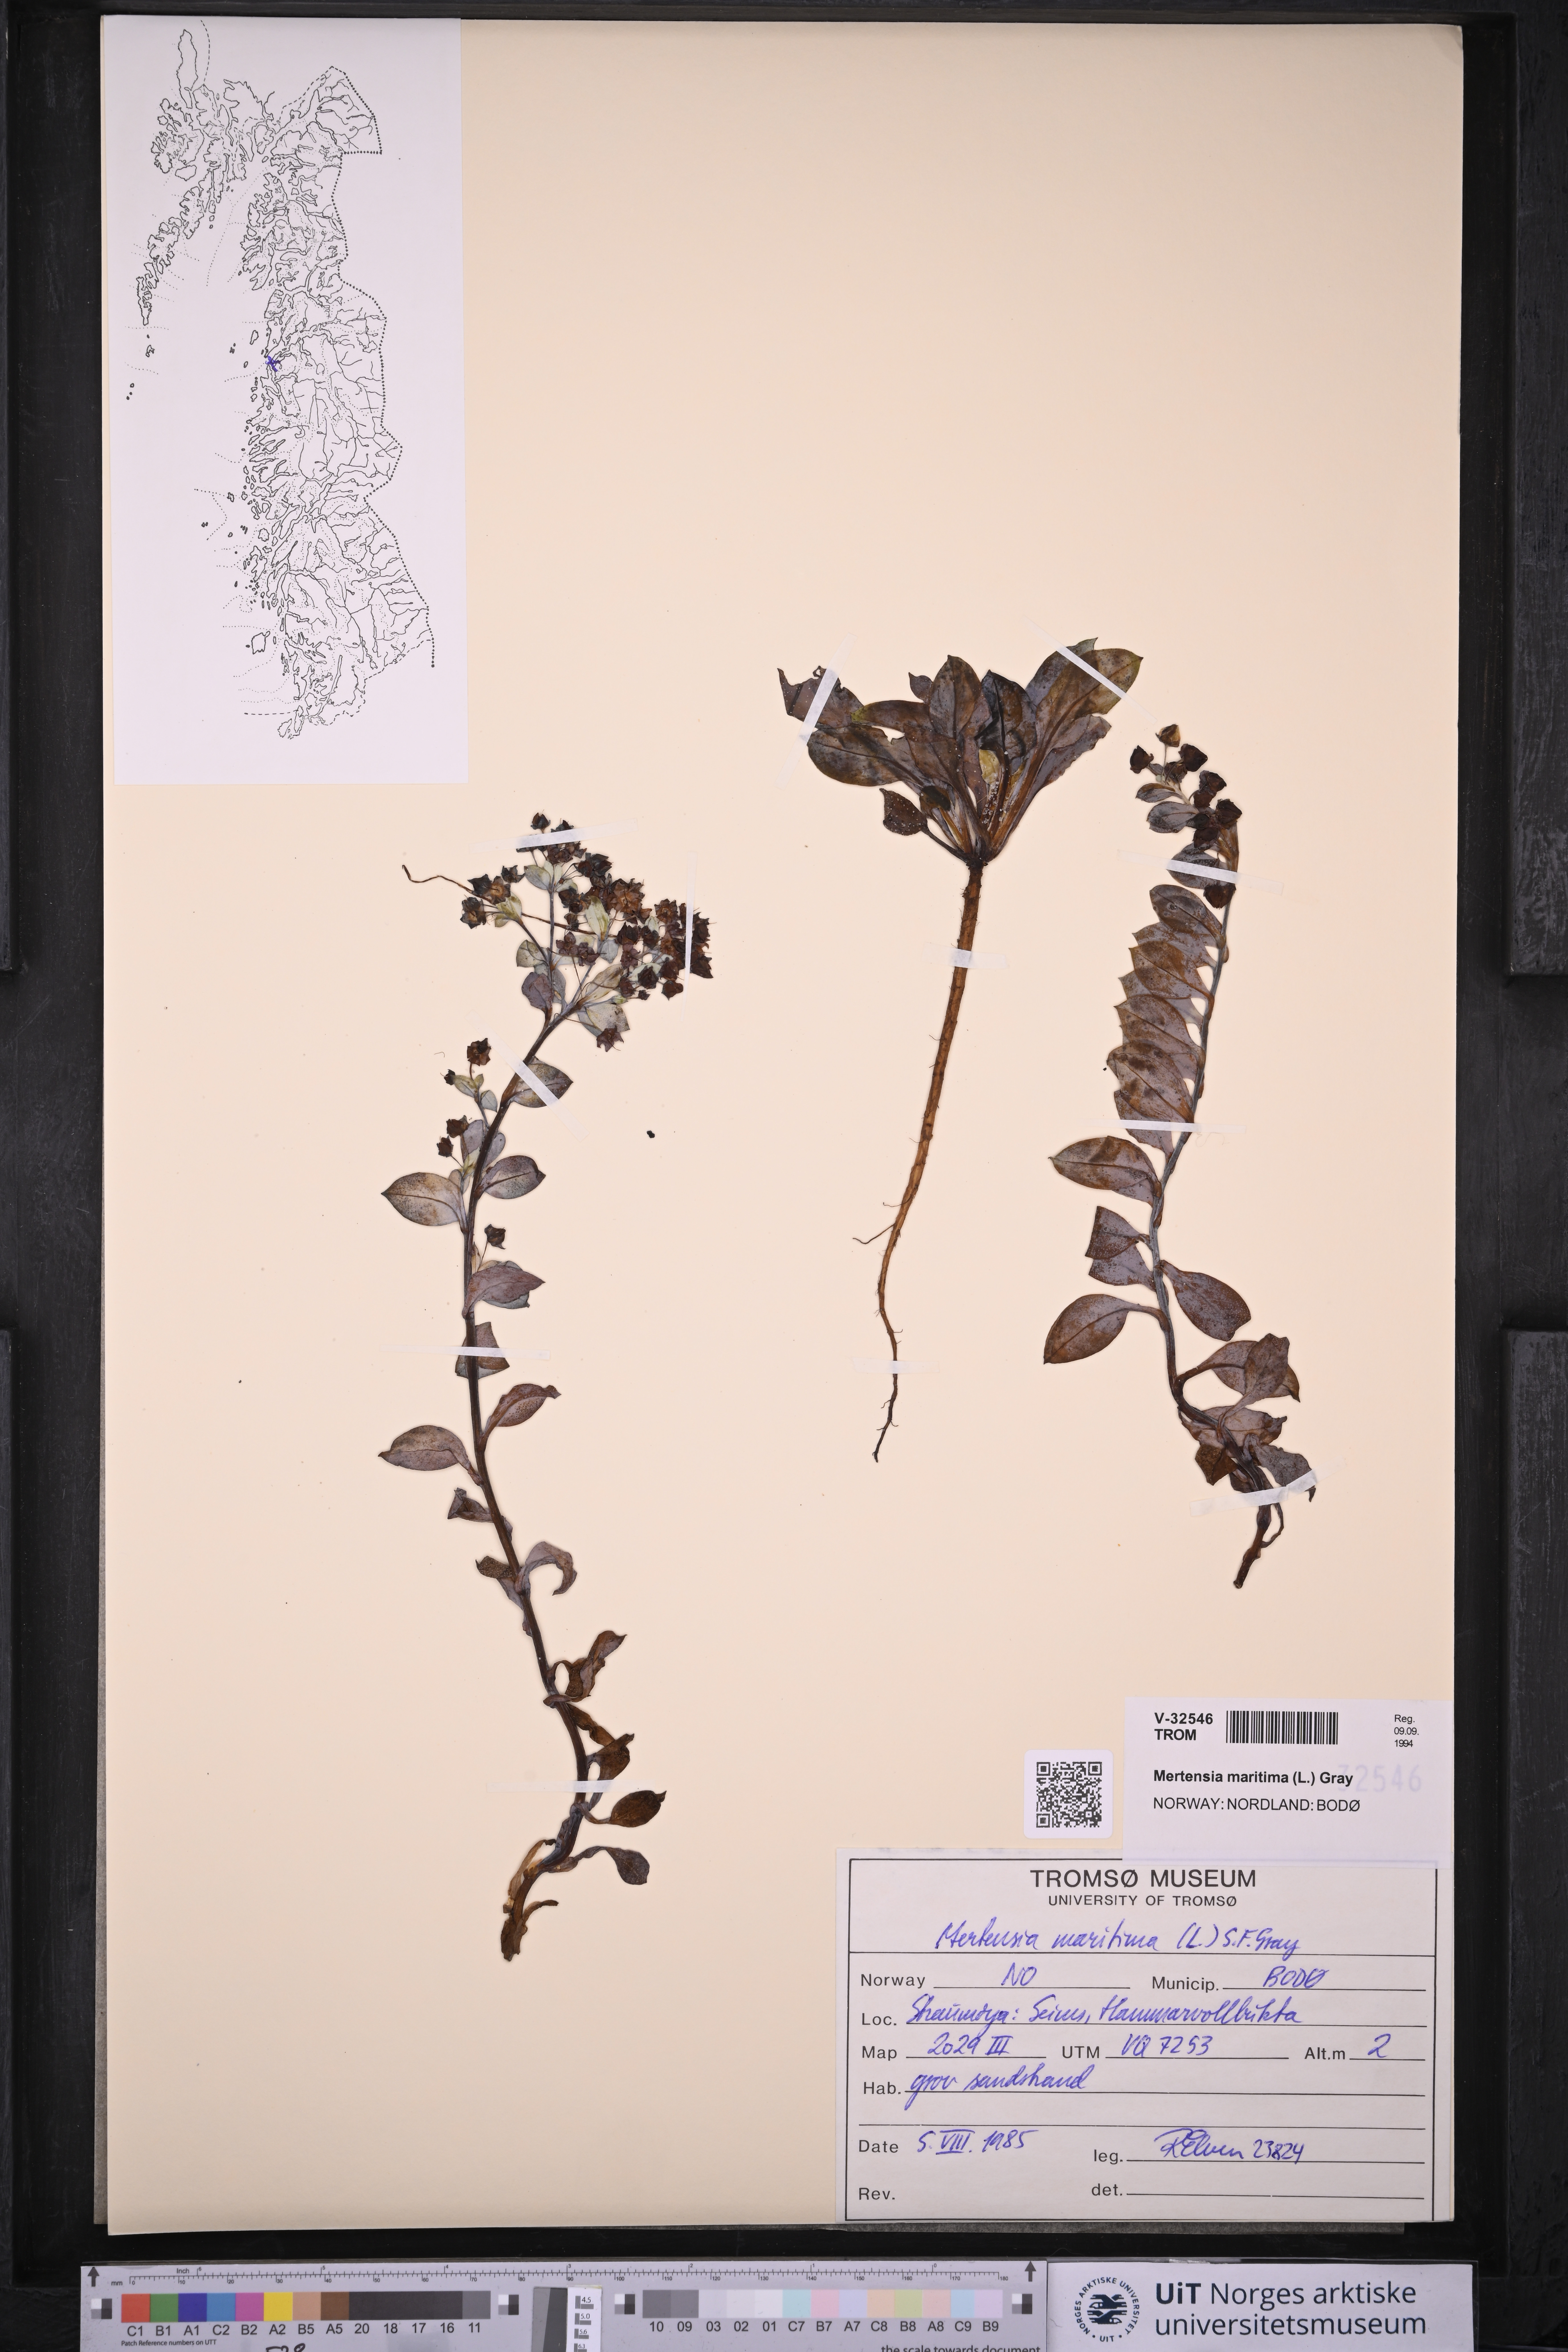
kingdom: Plantae
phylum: Tracheophyta
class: Magnoliopsida
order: Boraginales
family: Boraginaceae
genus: Mertensia
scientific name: Mertensia maritima
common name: Oysterplant
